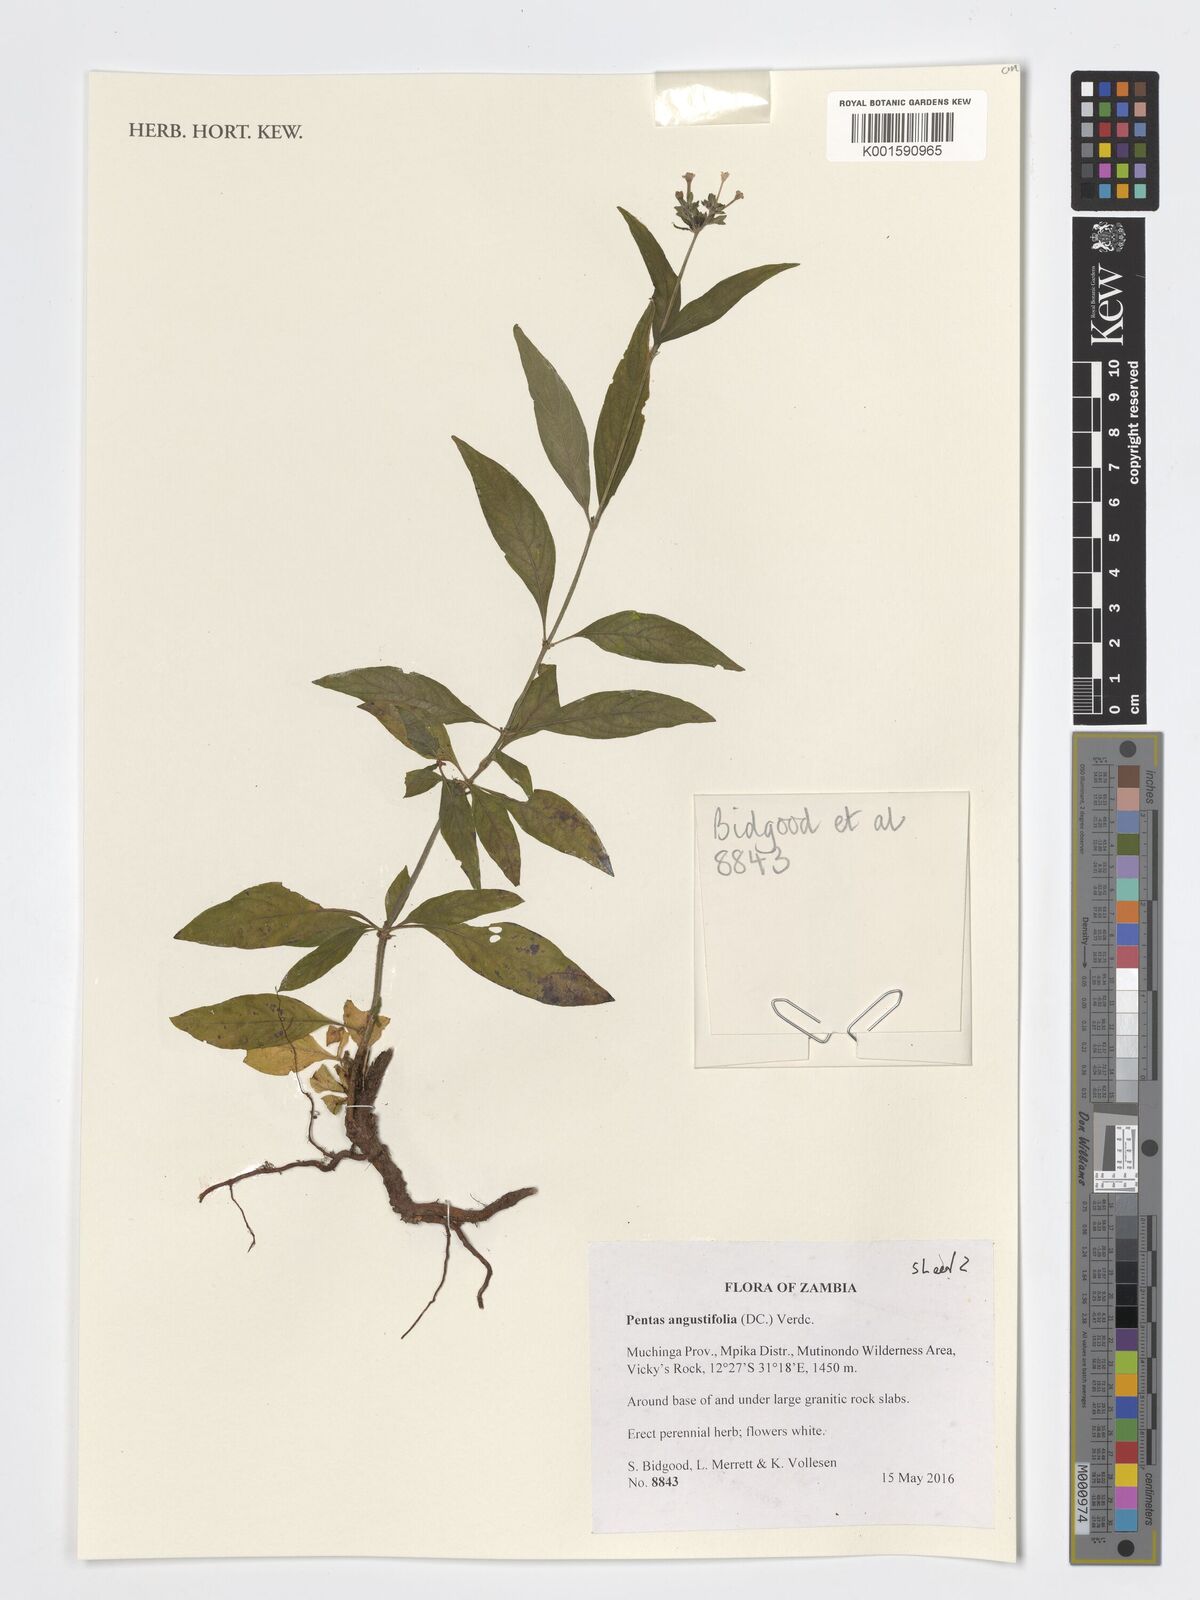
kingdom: Plantae
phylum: Tracheophyta
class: Magnoliopsida
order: Gentianales
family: Rubiaceae
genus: Pentas
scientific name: Pentas angustifolia
